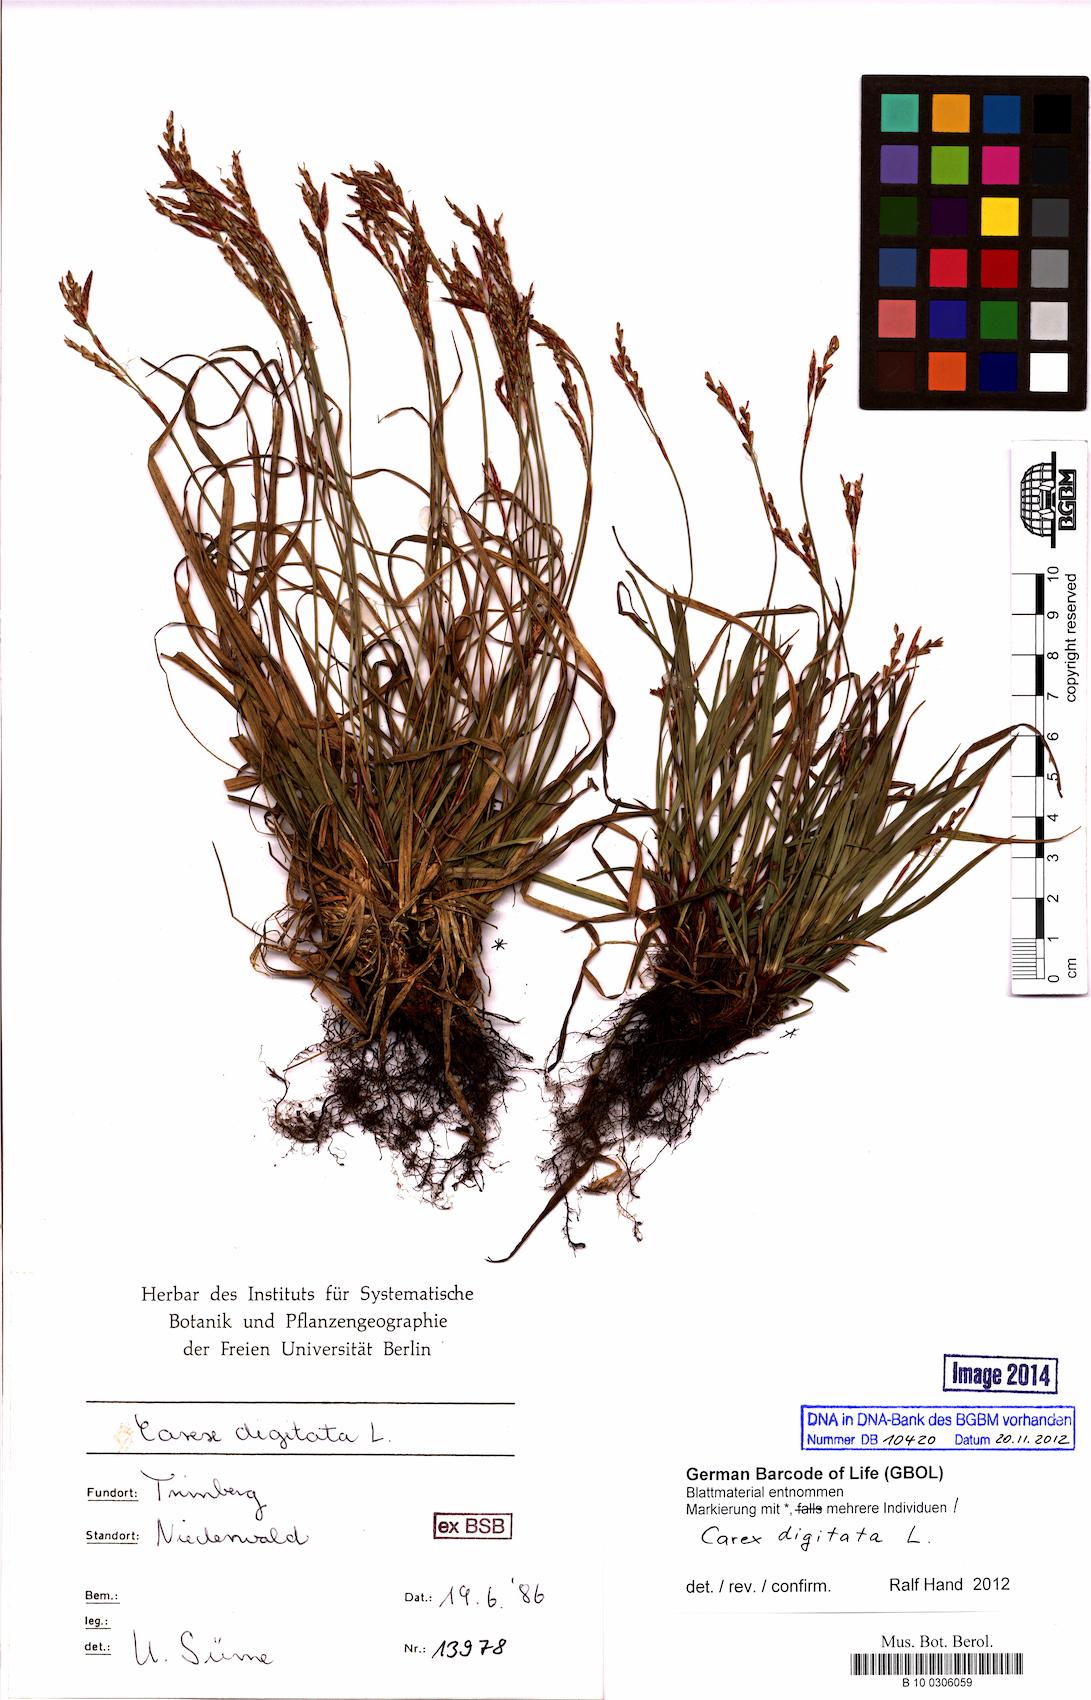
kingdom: Plantae
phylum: Tracheophyta
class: Liliopsida
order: Poales
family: Cyperaceae
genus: Carex
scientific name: Carex digitata
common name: Fingered sedge
